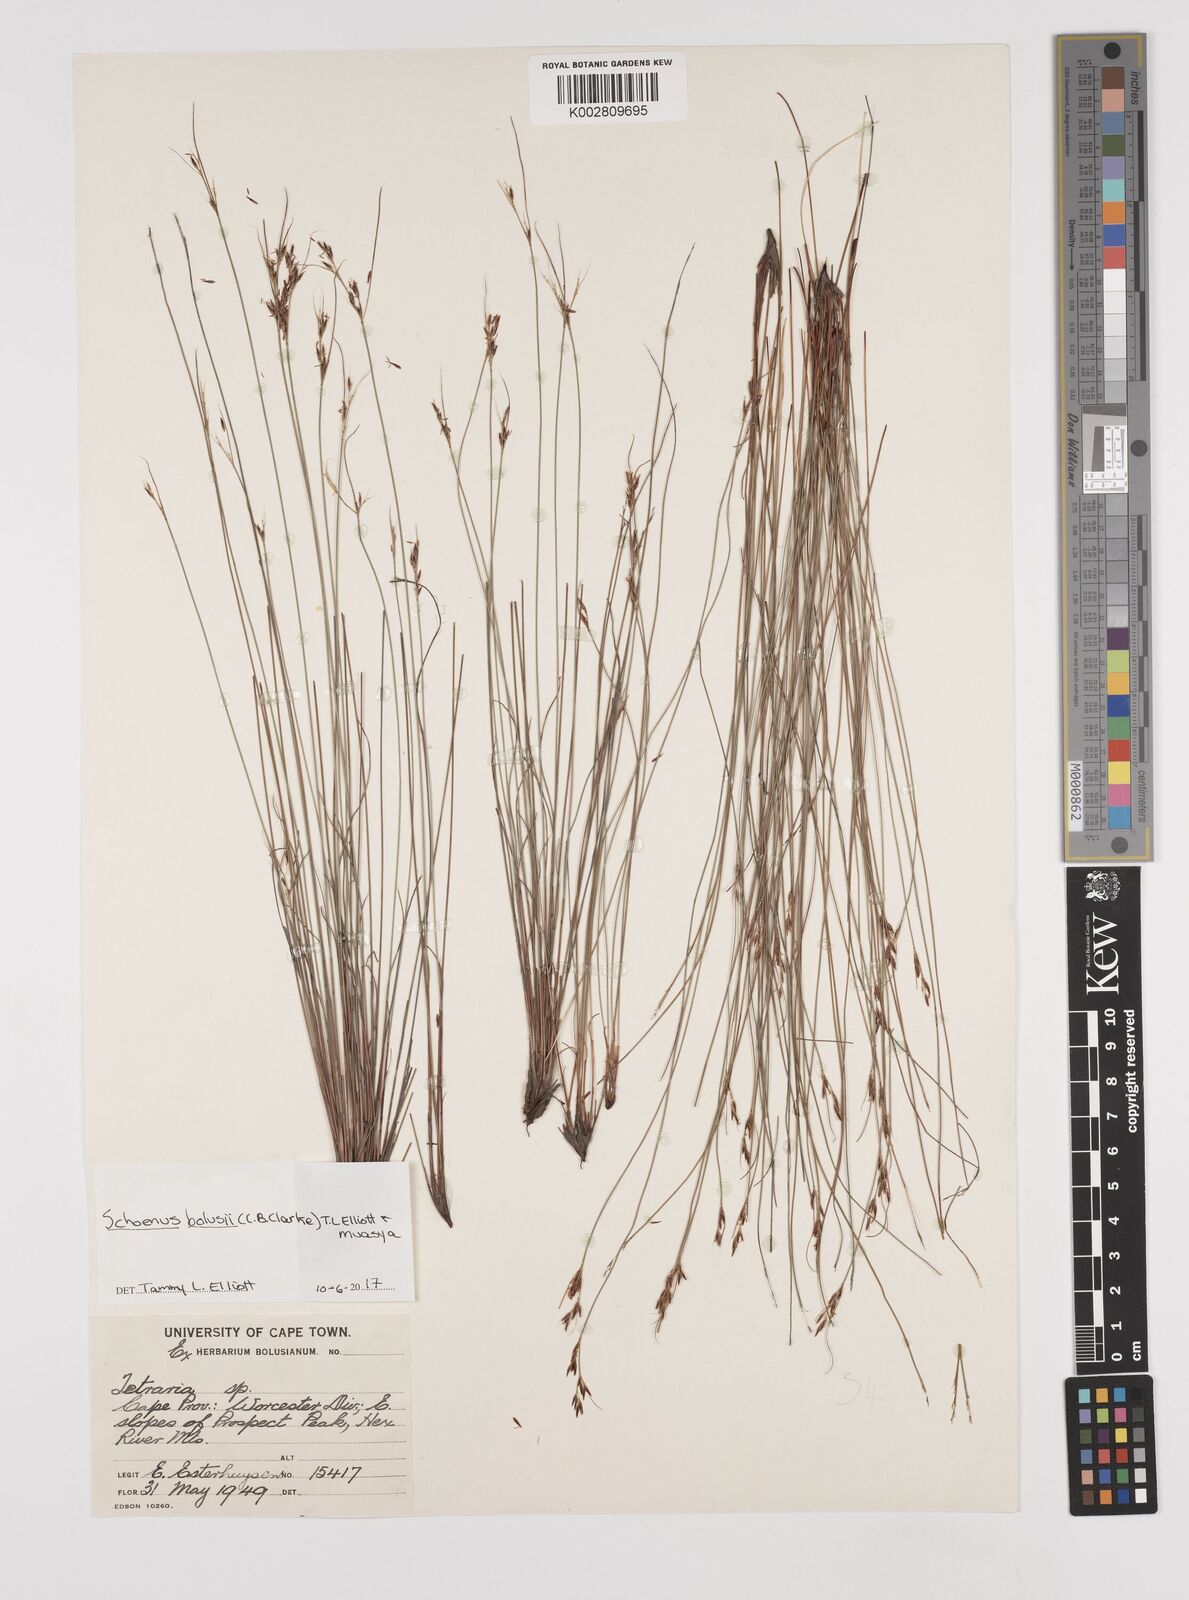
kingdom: Plantae
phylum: Tracheophyta
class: Liliopsida
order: Poales
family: Cyperaceae
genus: Schoenus
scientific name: Schoenus bolusii
